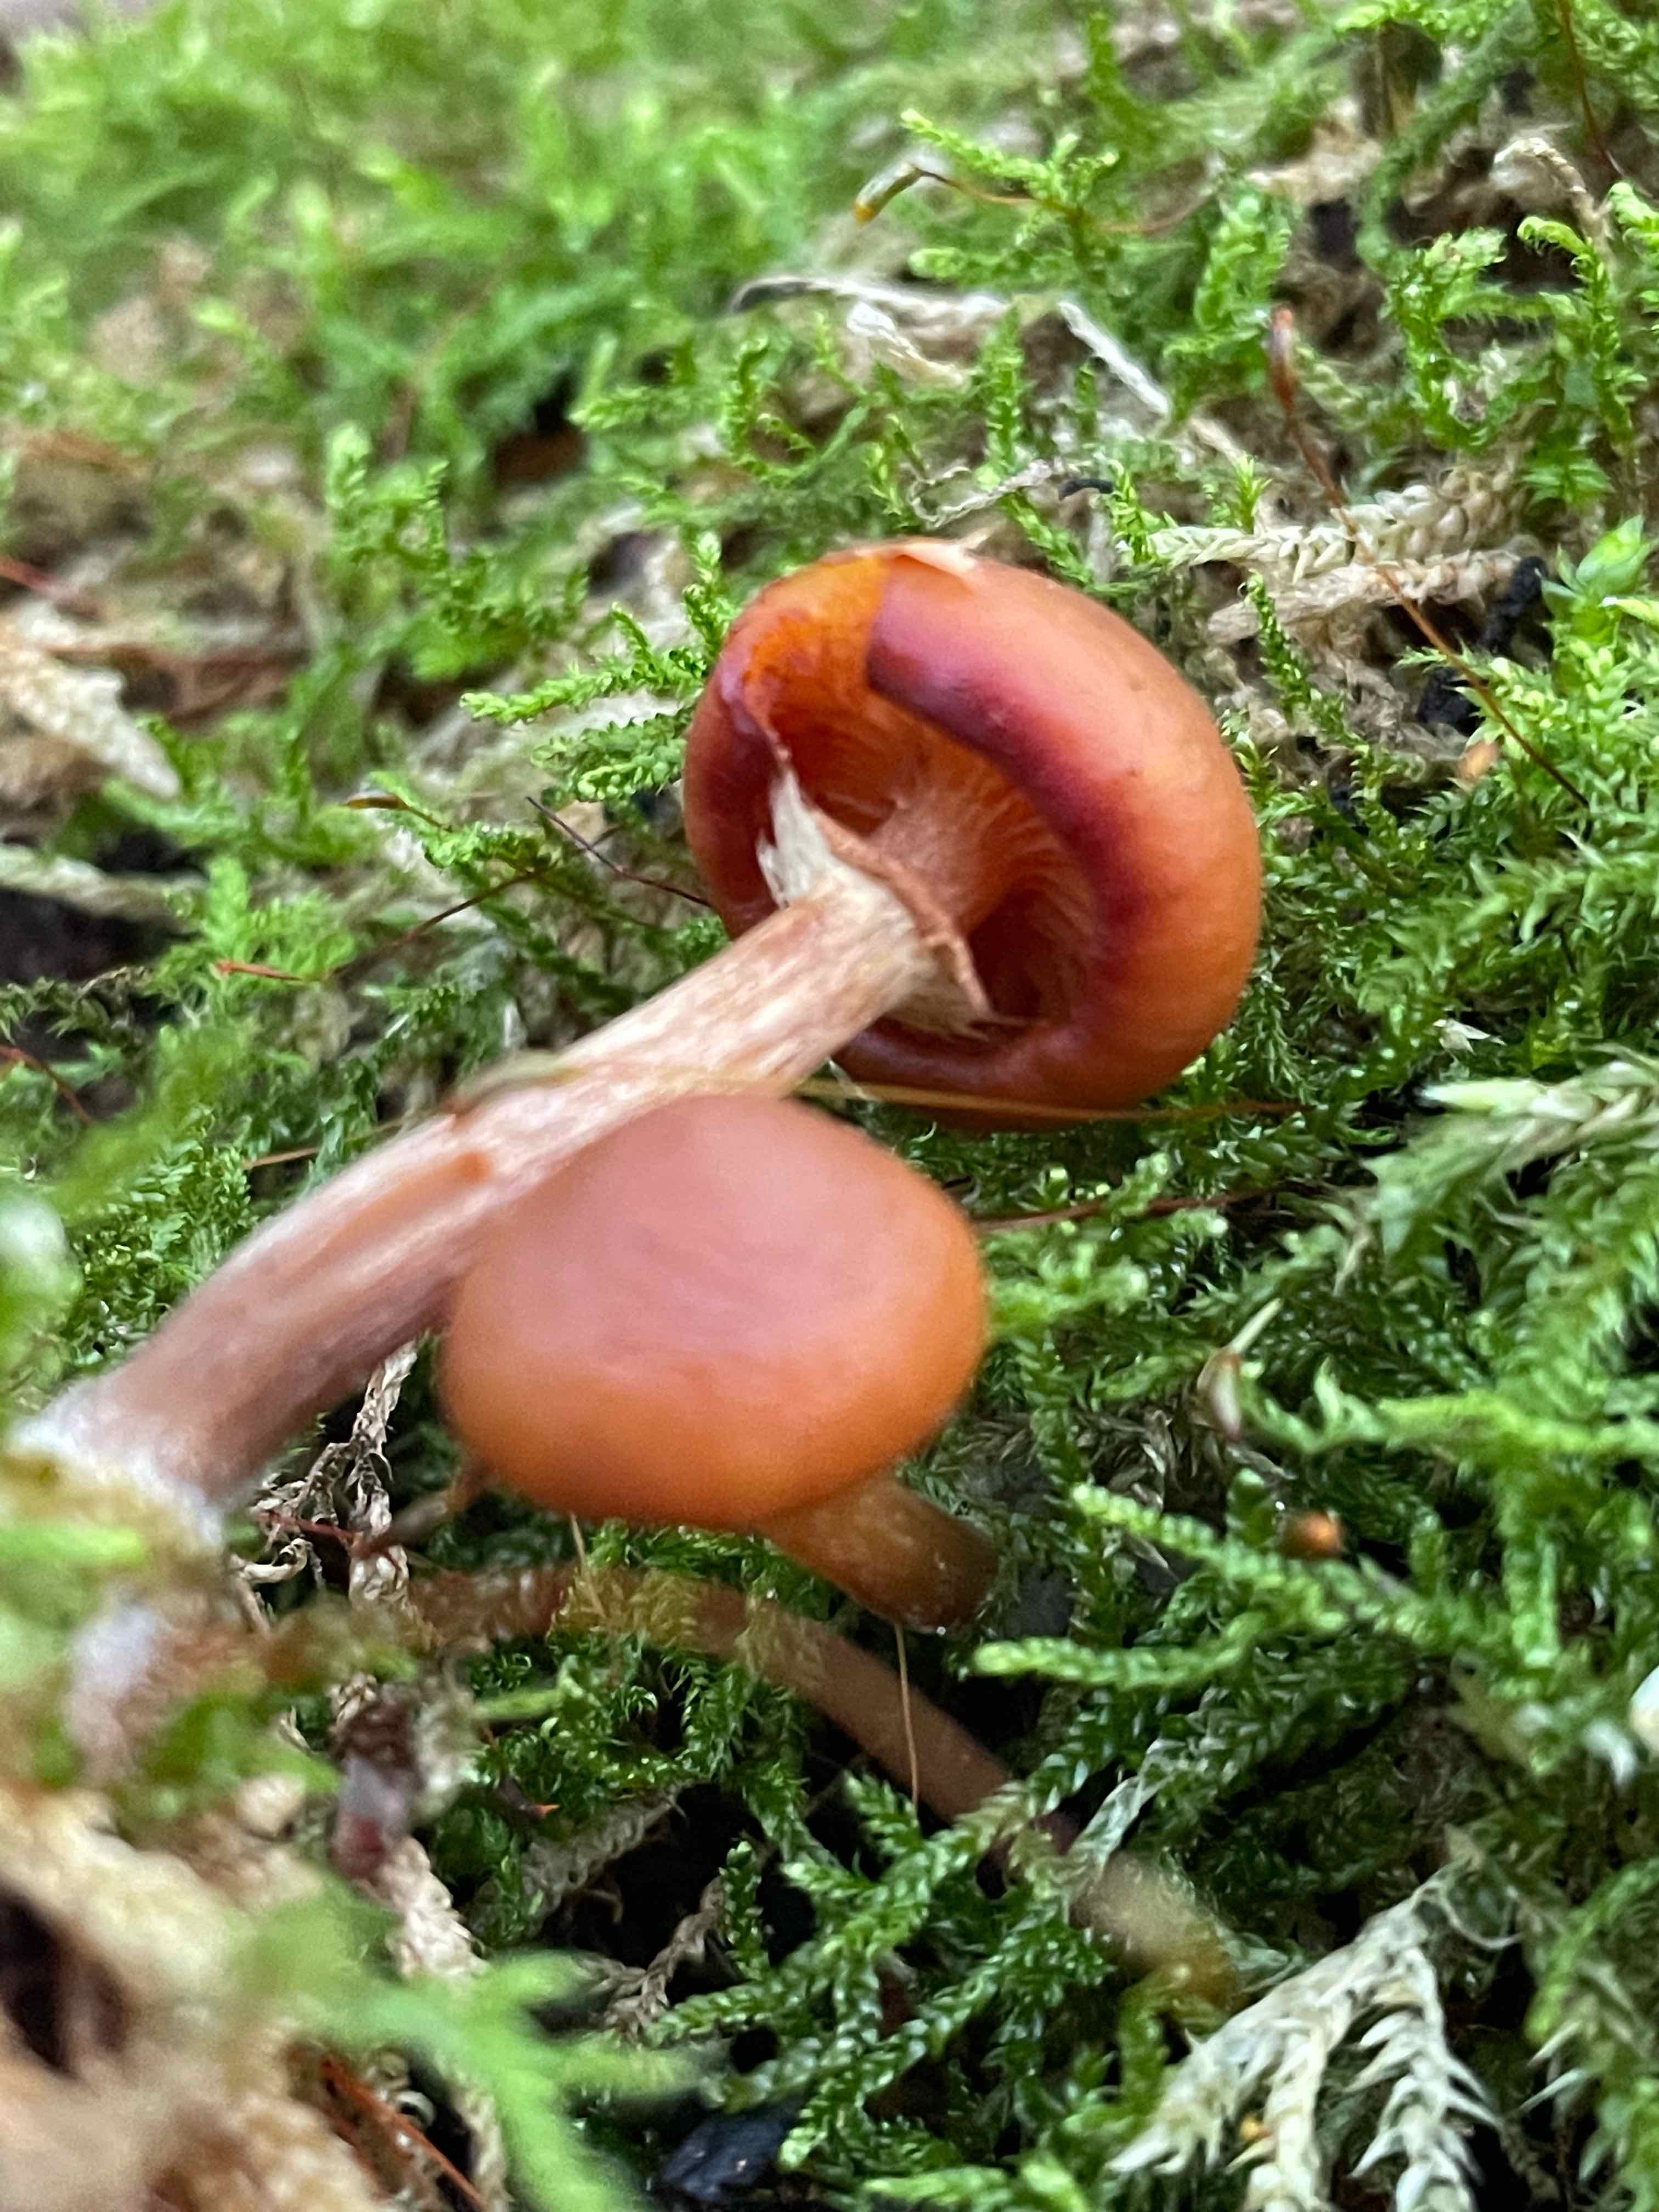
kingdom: Fungi
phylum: Basidiomycota
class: Agaricomycetes
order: Agaricales
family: Hymenogastraceae
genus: Galerina
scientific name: Galerina marginata
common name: randbæltet hjelmhat
